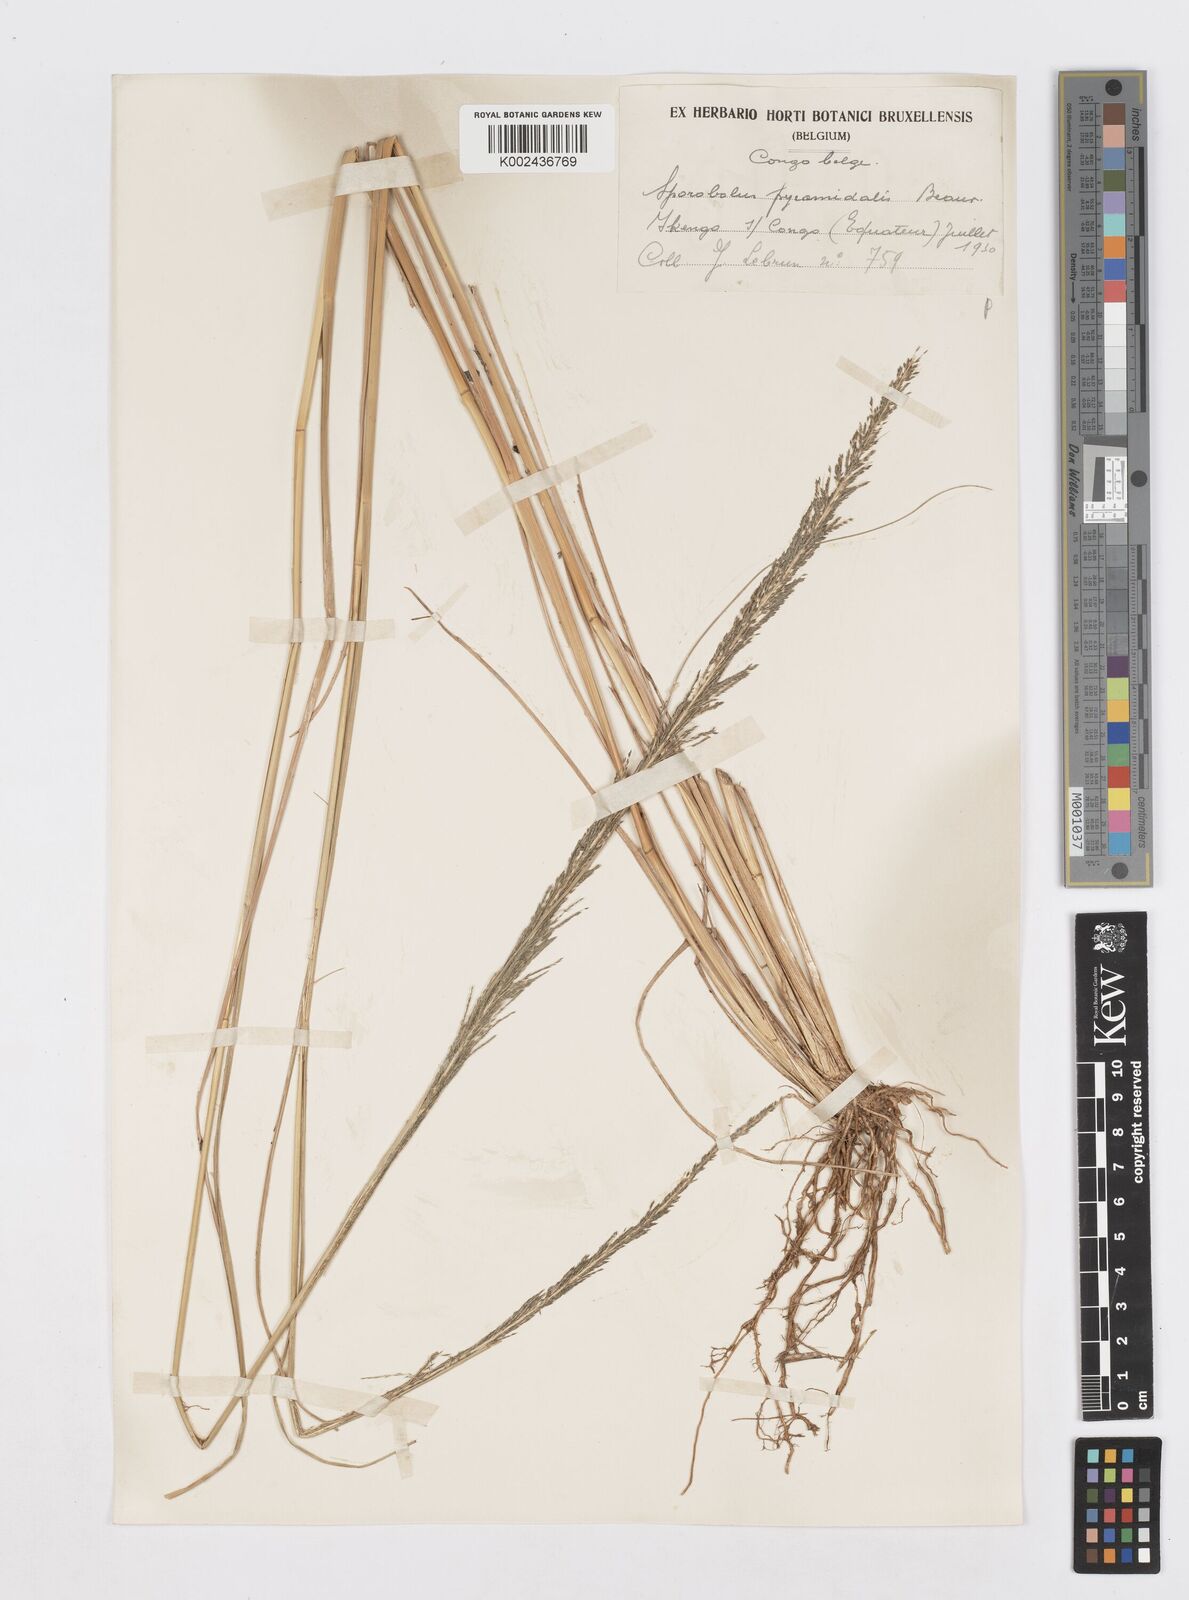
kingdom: Plantae
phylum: Tracheophyta
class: Liliopsida
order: Poales
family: Poaceae
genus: Sporobolus
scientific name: Sporobolus pyramidalis
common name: West indian dropseed
